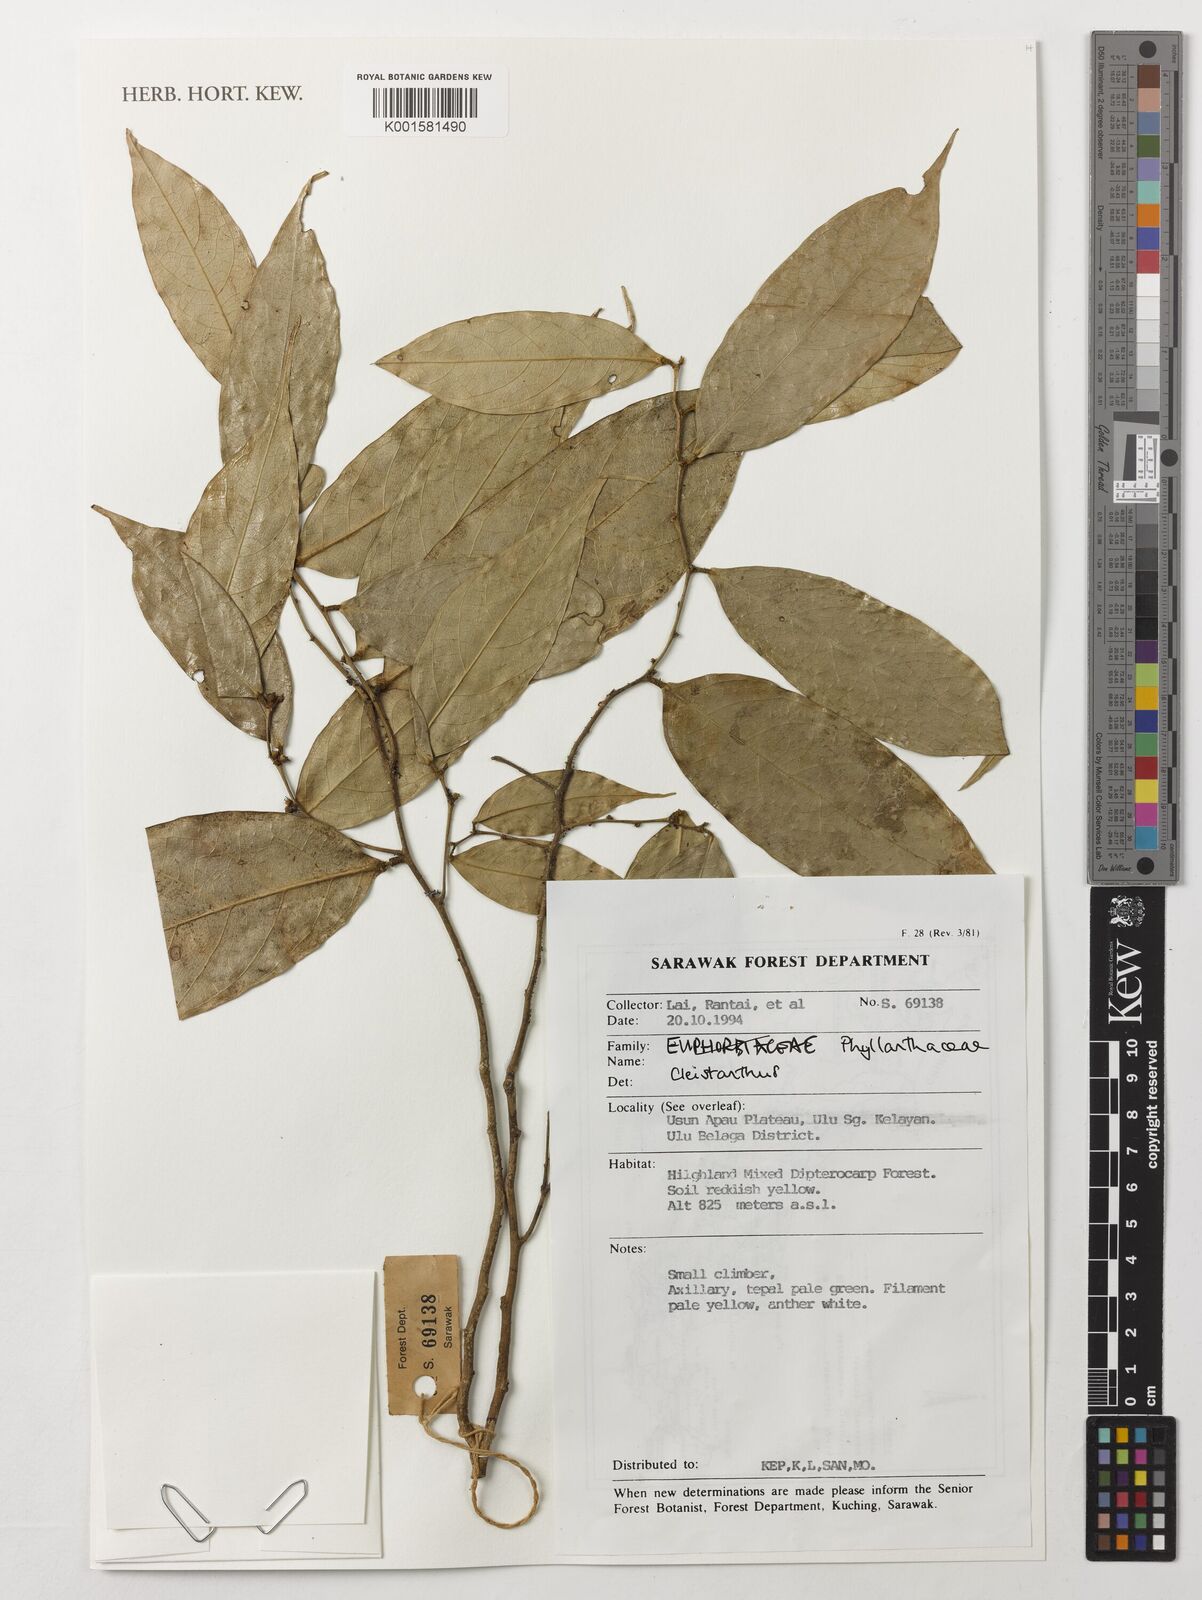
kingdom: Plantae
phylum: Tracheophyta
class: Magnoliopsida
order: Malpighiales
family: Phyllanthaceae
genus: Cleistanthus
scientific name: Cleistanthus
